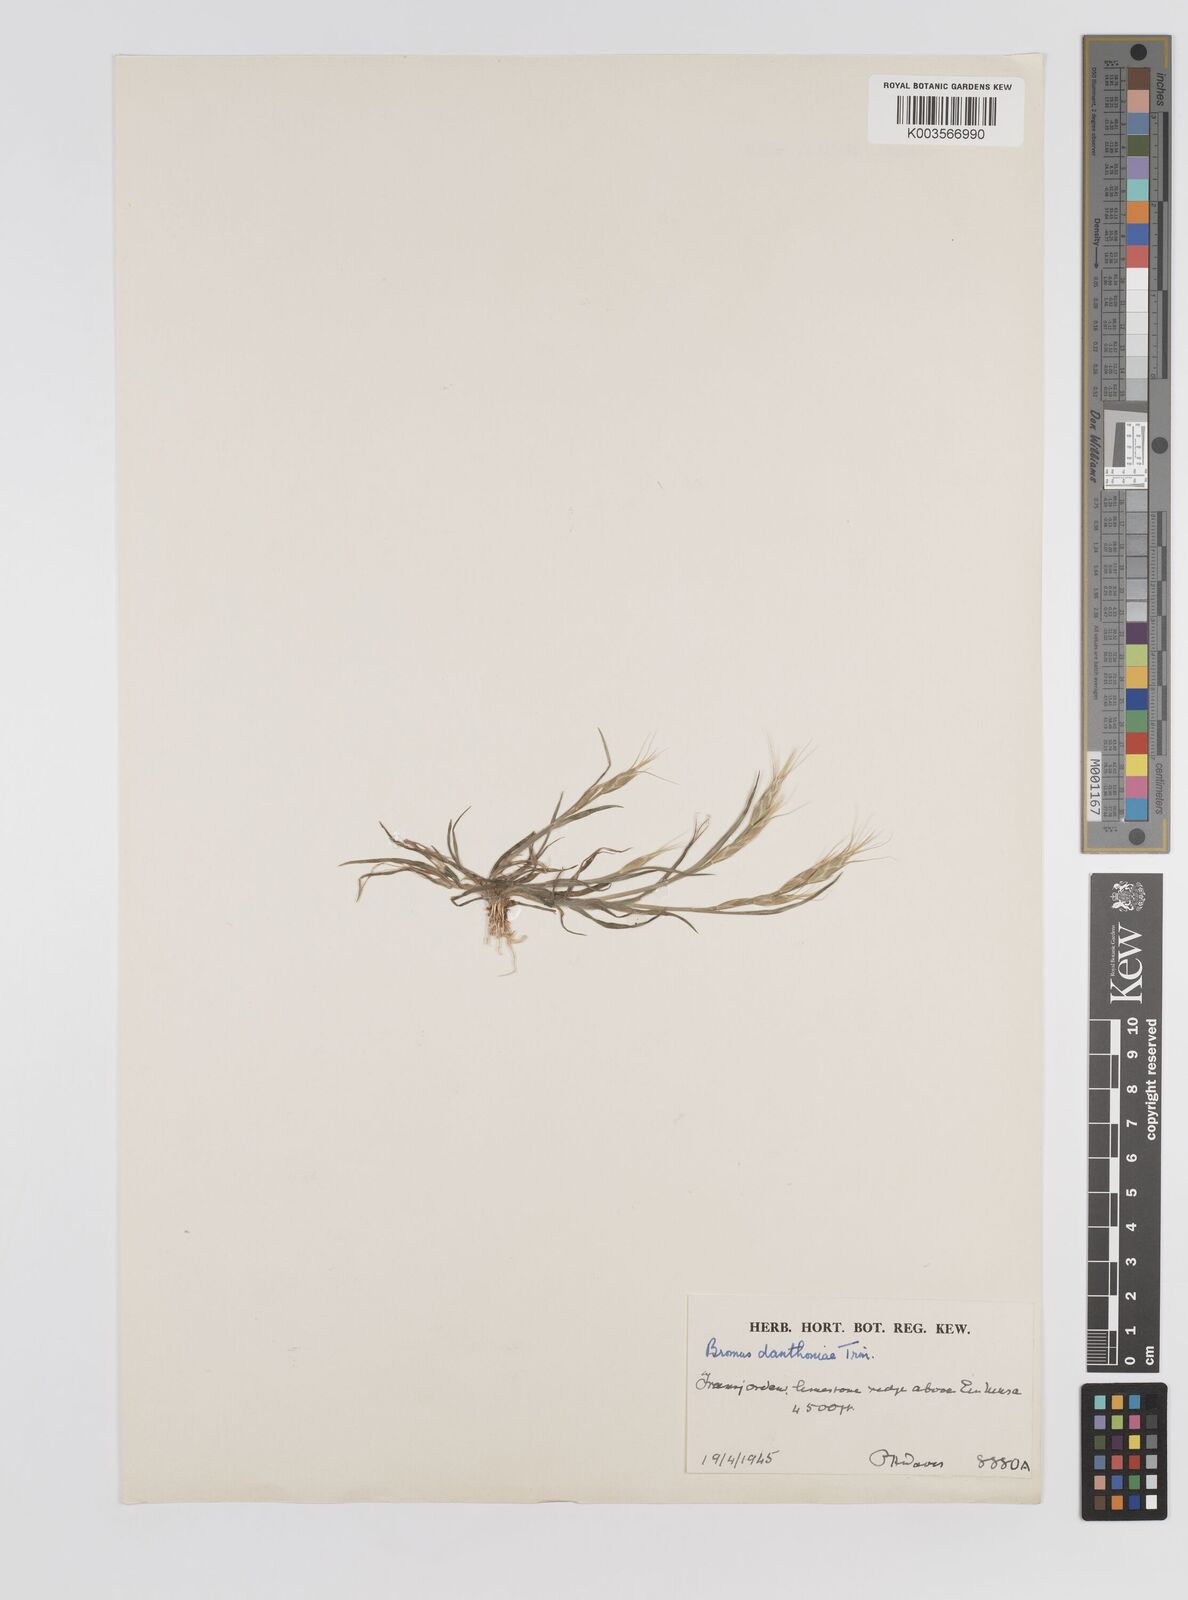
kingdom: Plantae
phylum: Tracheophyta
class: Liliopsida
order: Poales
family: Poaceae
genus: Bromus
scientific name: Bromus danthoniae
